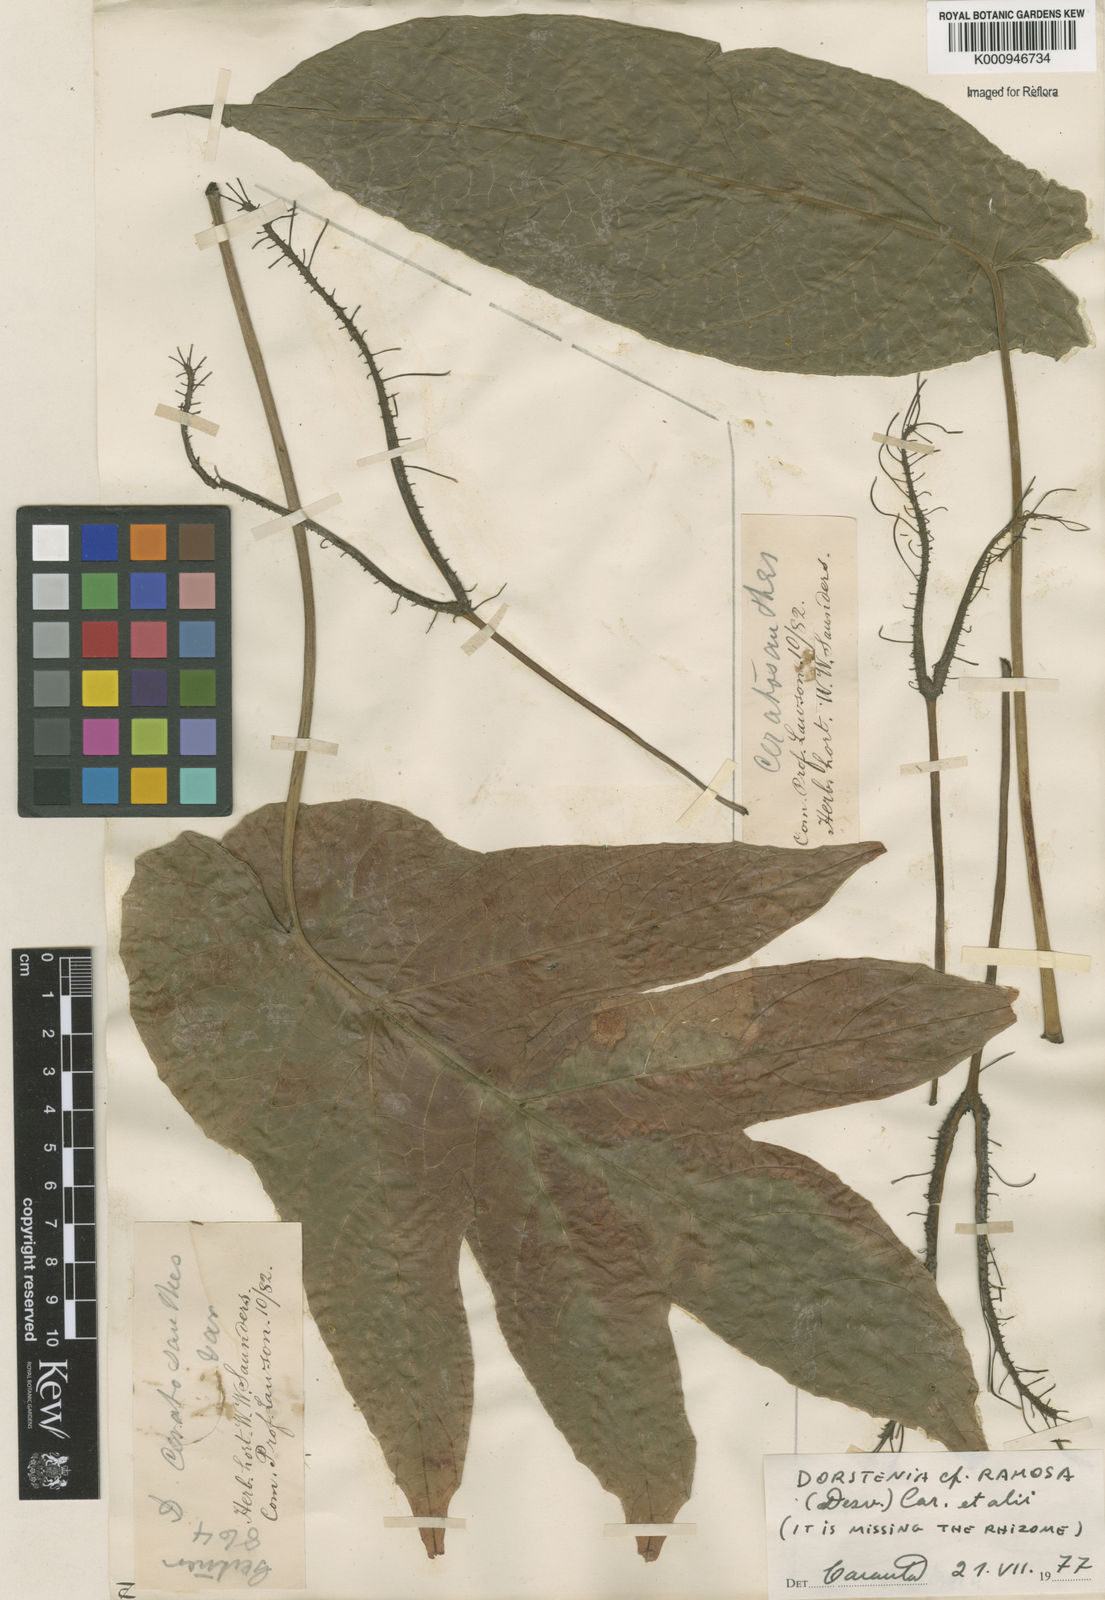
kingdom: Plantae
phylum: Tracheophyta
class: Magnoliopsida
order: Rosales
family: Moraceae
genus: Dorstenia
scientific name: Dorstenia ramosa
